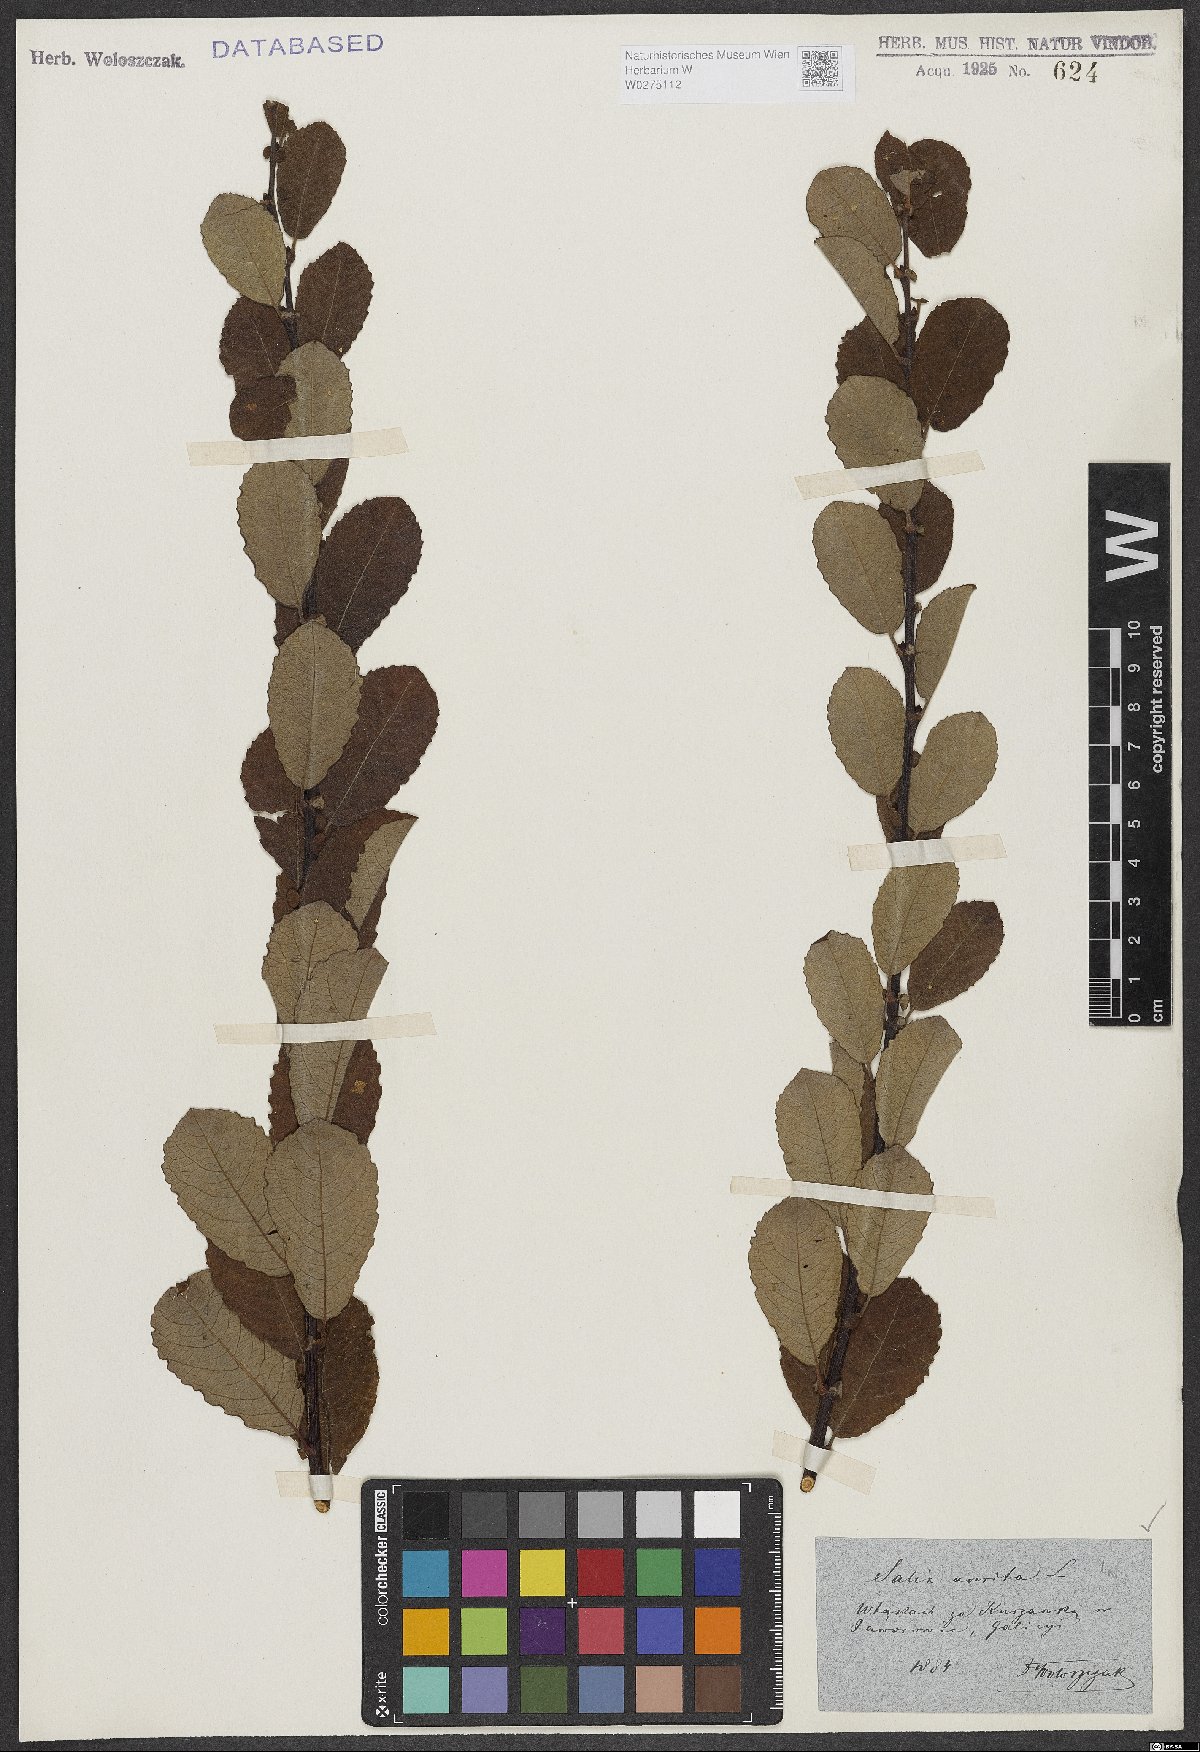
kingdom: Plantae
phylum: Tracheophyta
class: Magnoliopsida
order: Malpighiales
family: Salicaceae
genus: Salix
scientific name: Salix aurita
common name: Eared willow
